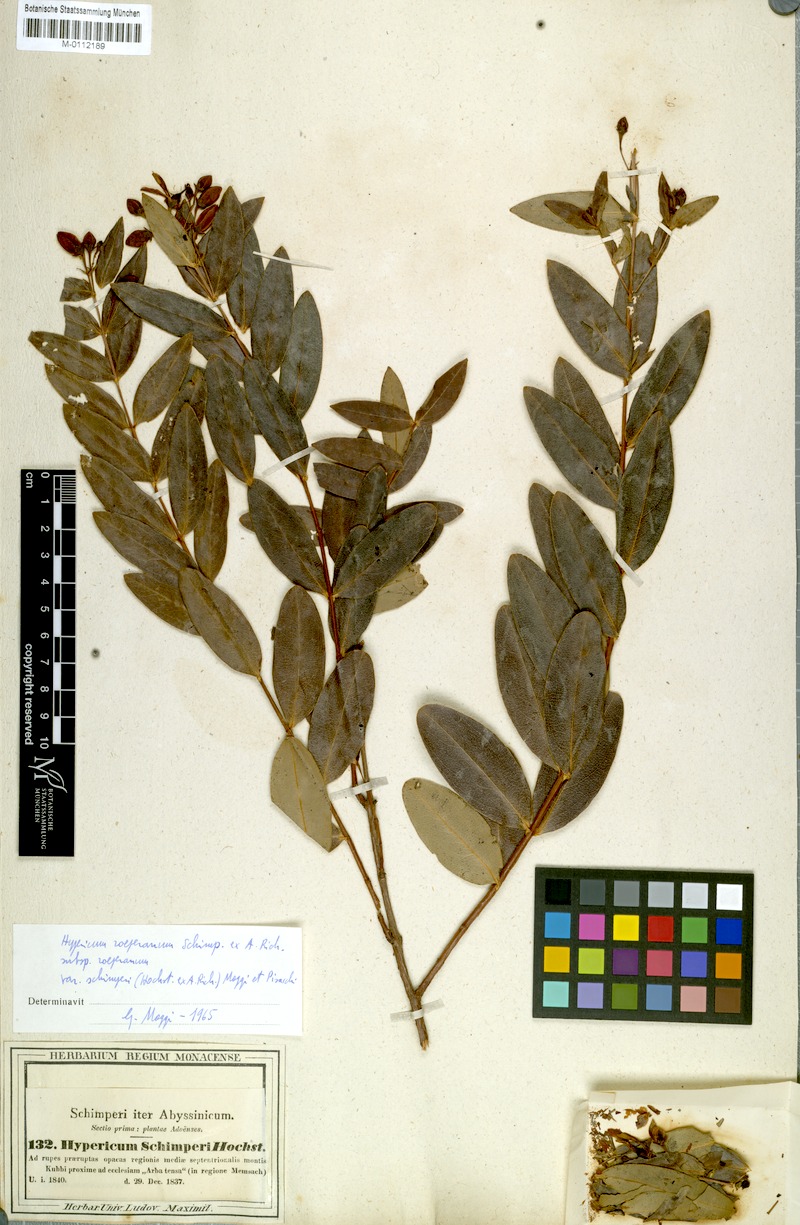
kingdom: Plantae
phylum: Tracheophyta
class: Magnoliopsida
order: Malpighiales
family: Hypericaceae
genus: Hypericum
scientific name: Hypericum roeperianum
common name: Large-leaved curry-bush
